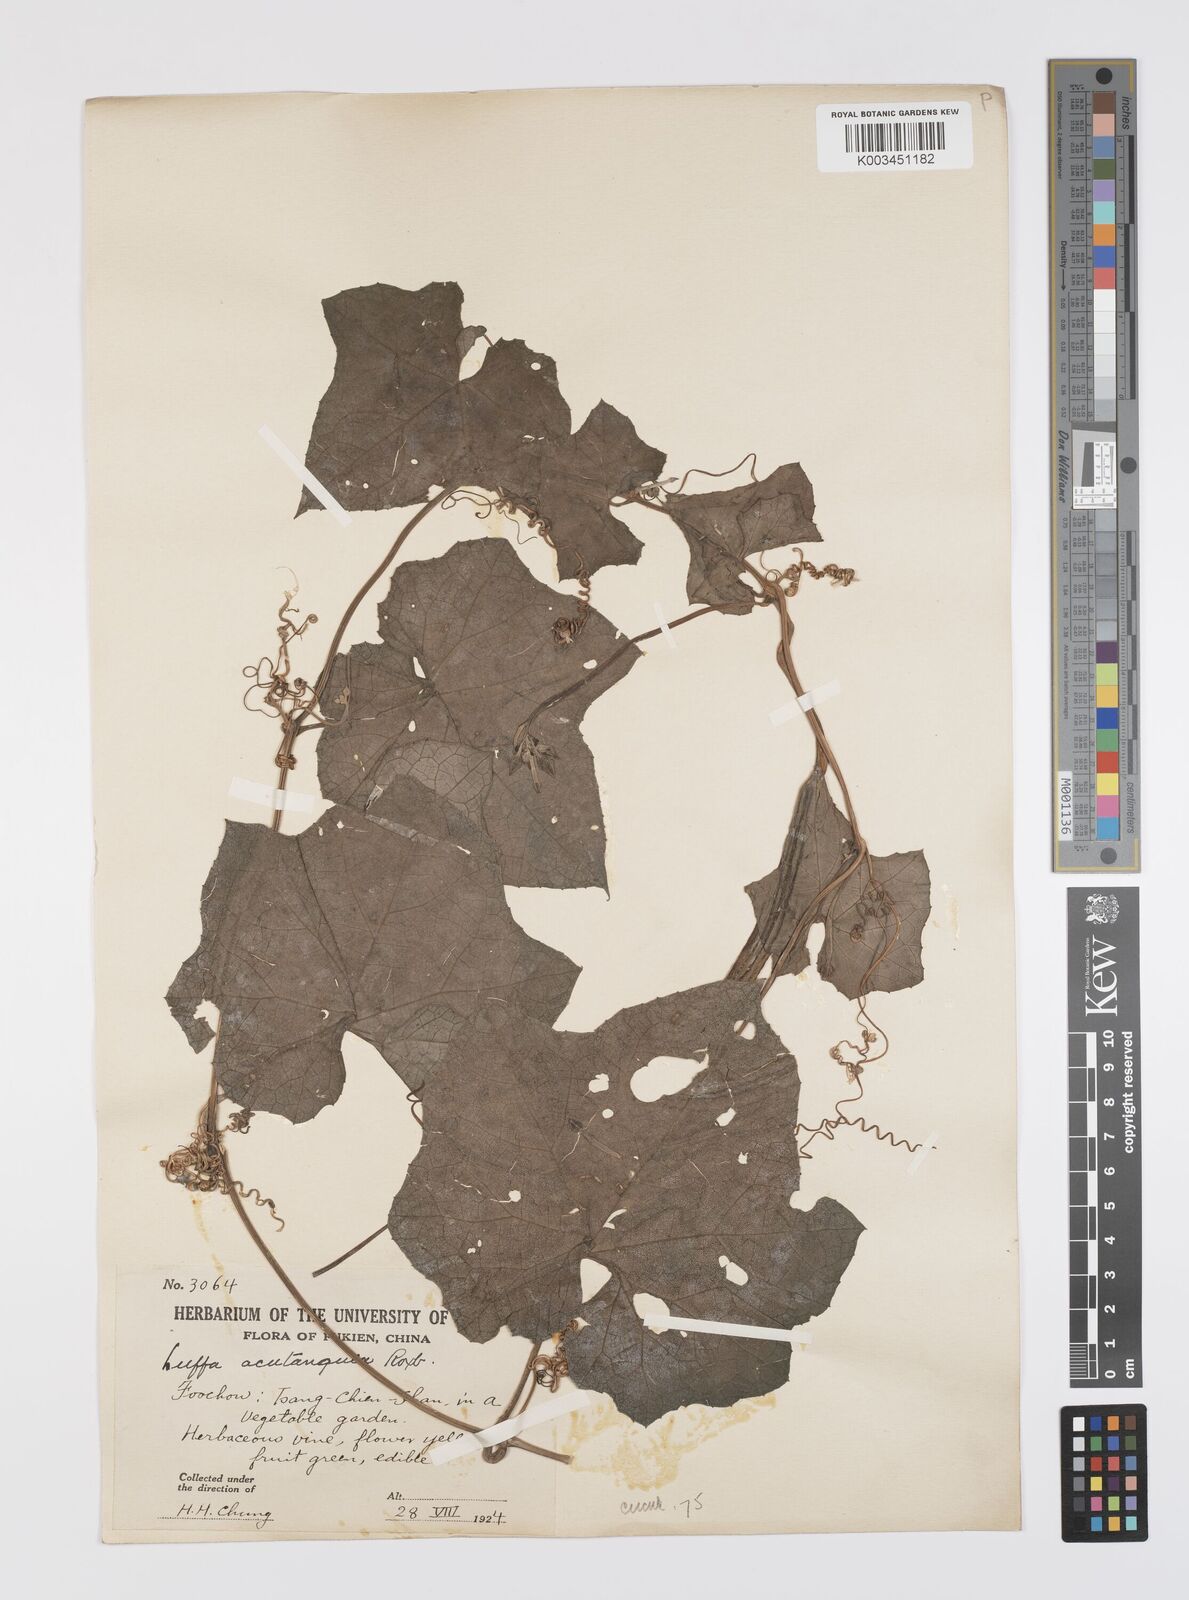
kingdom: Plantae
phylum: Tracheophyta
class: Magnoliopsida
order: Cucurbitales
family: Cucurbitaceae
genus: Luffa
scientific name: Luffa acutangula
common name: Sinkwa towelsponge
